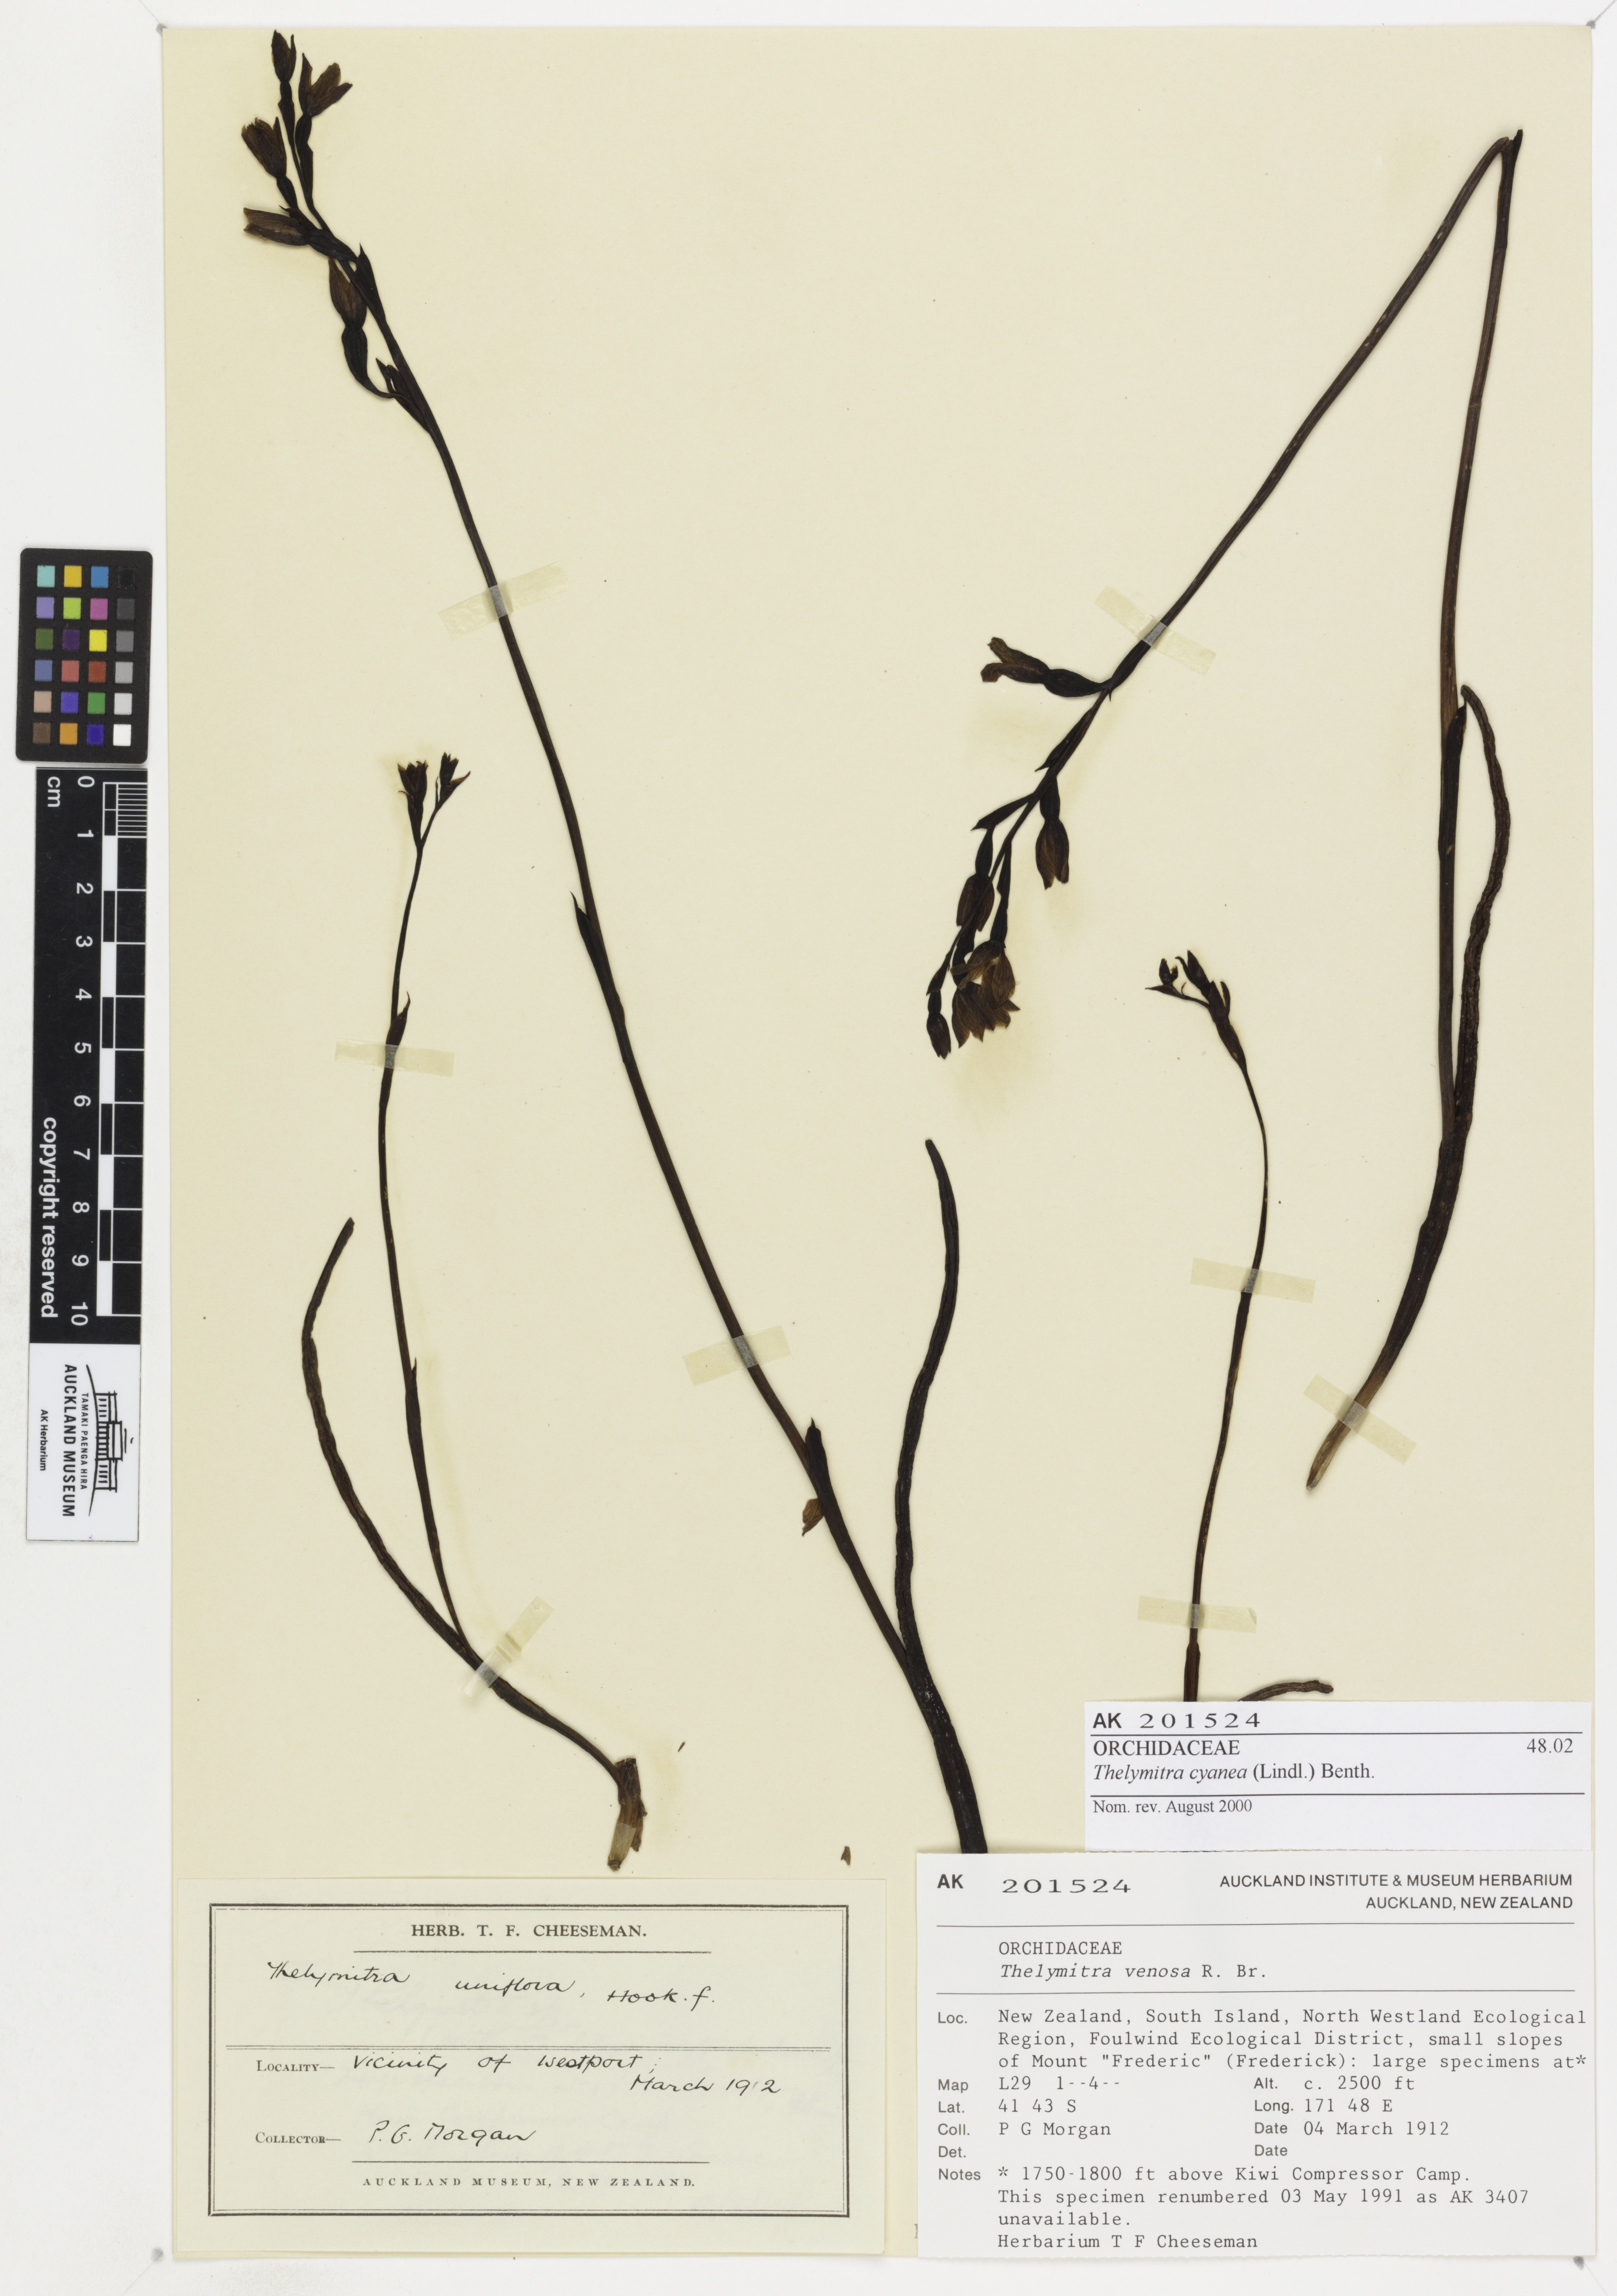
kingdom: Plantae
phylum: Tracheophyta
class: Liliopsida
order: Asparagales
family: Orchidaceae
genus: Thelymitra
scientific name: Thelymitra cyanea
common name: Blue sun-orchid
